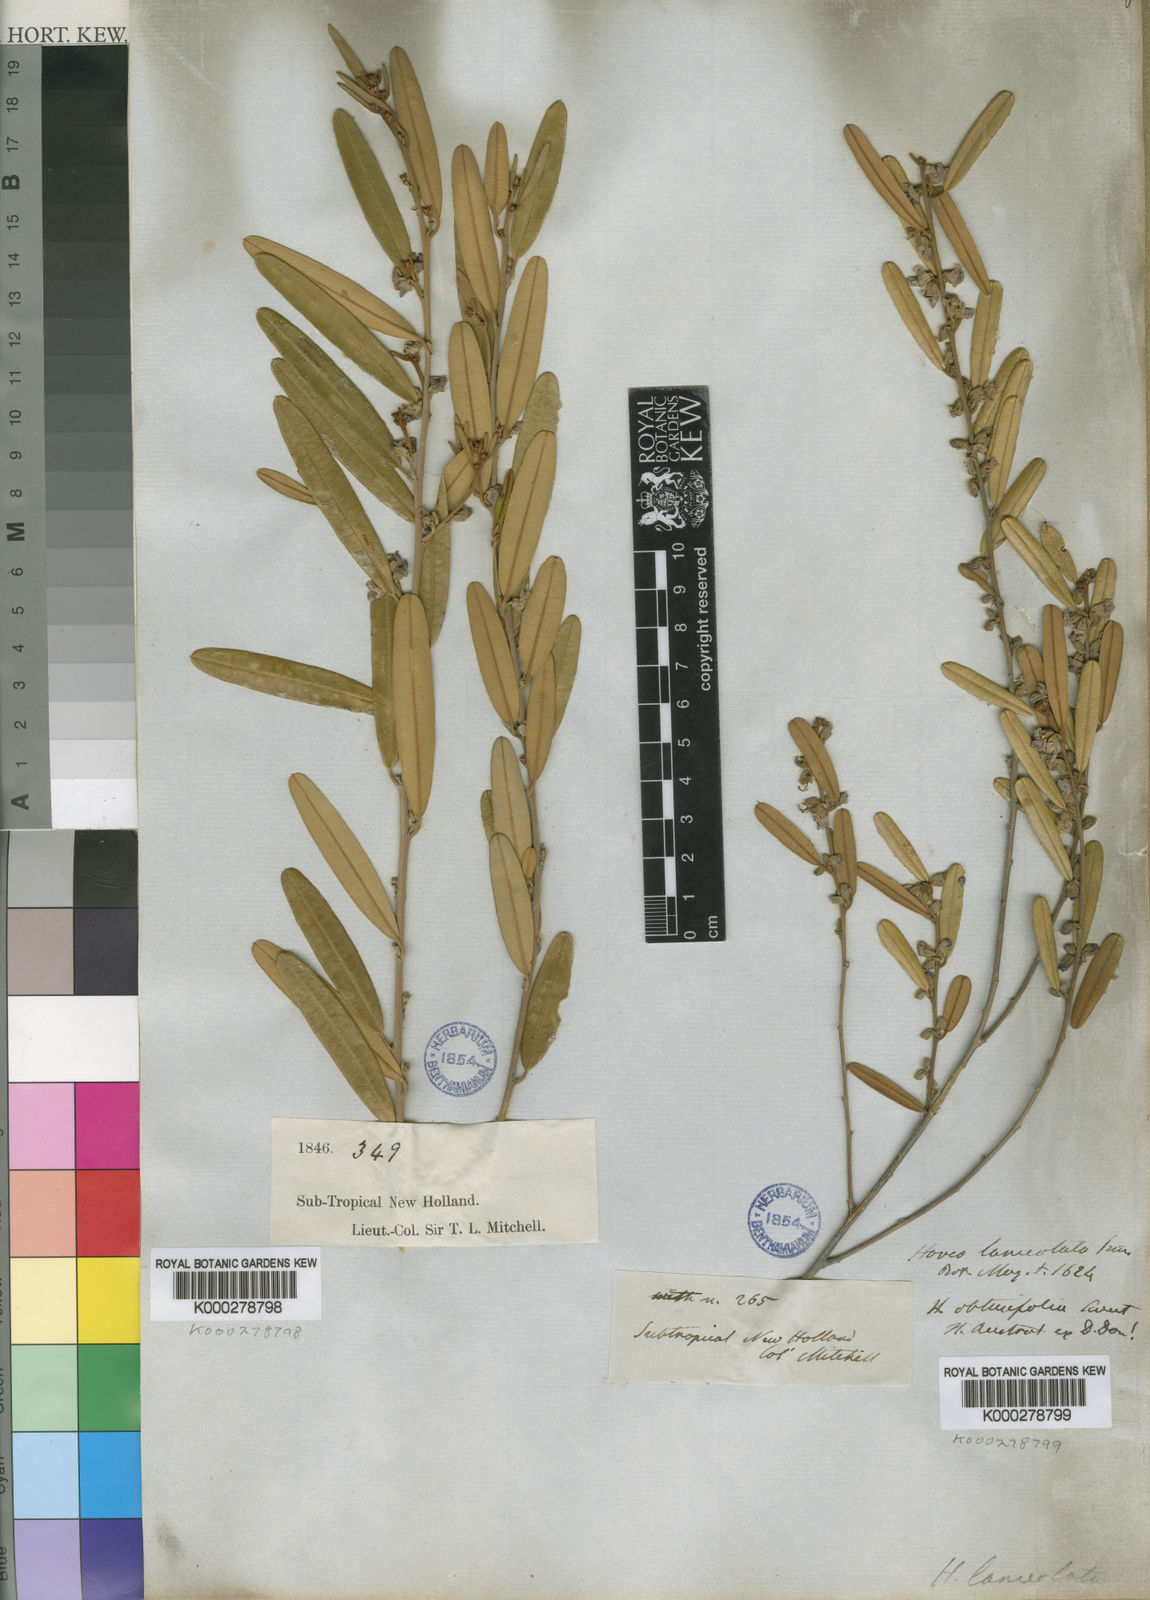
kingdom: Plantae
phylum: Tracheophyta
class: Magnoliopsida
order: Fabales
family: Fabaceae
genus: Hovea
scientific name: Hovea lanceolata
